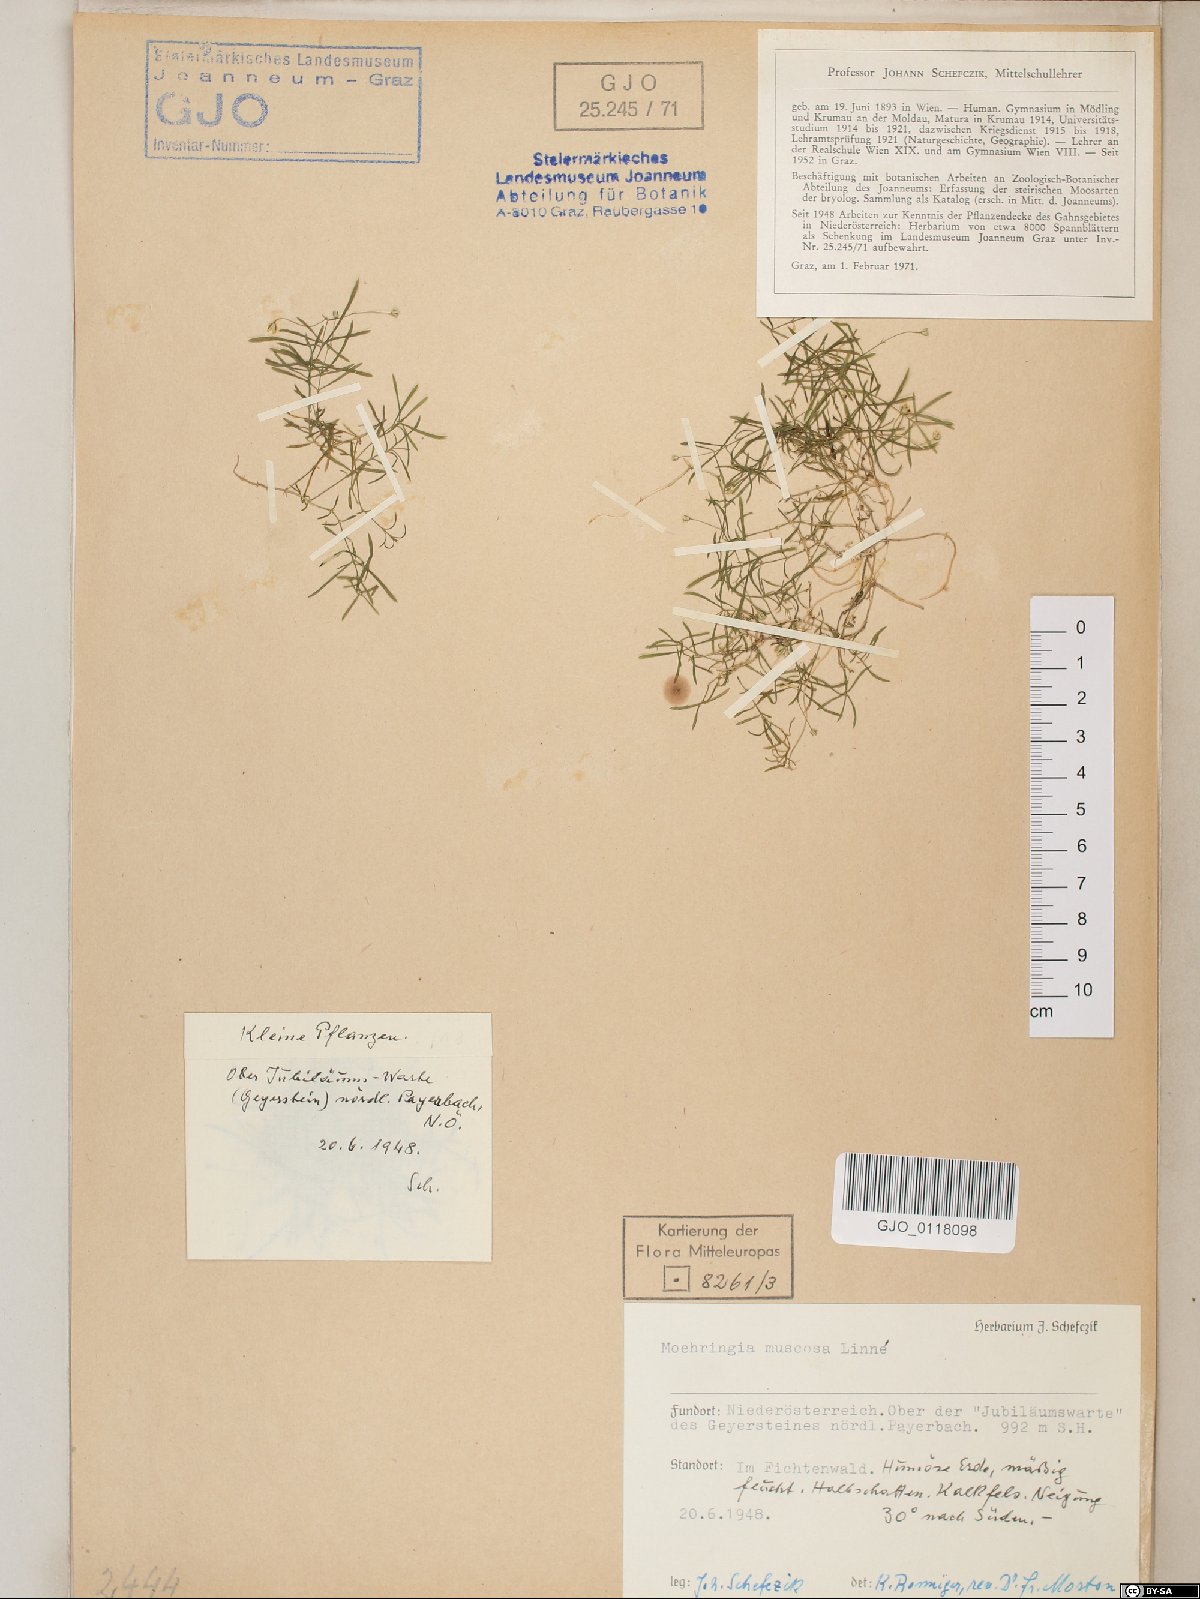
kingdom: Plantae
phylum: Tracheophyta
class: Magnoliopsida
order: Caryophyllales
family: Caryophyllaceae
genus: Moehringia
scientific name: Moehringia muscosa
